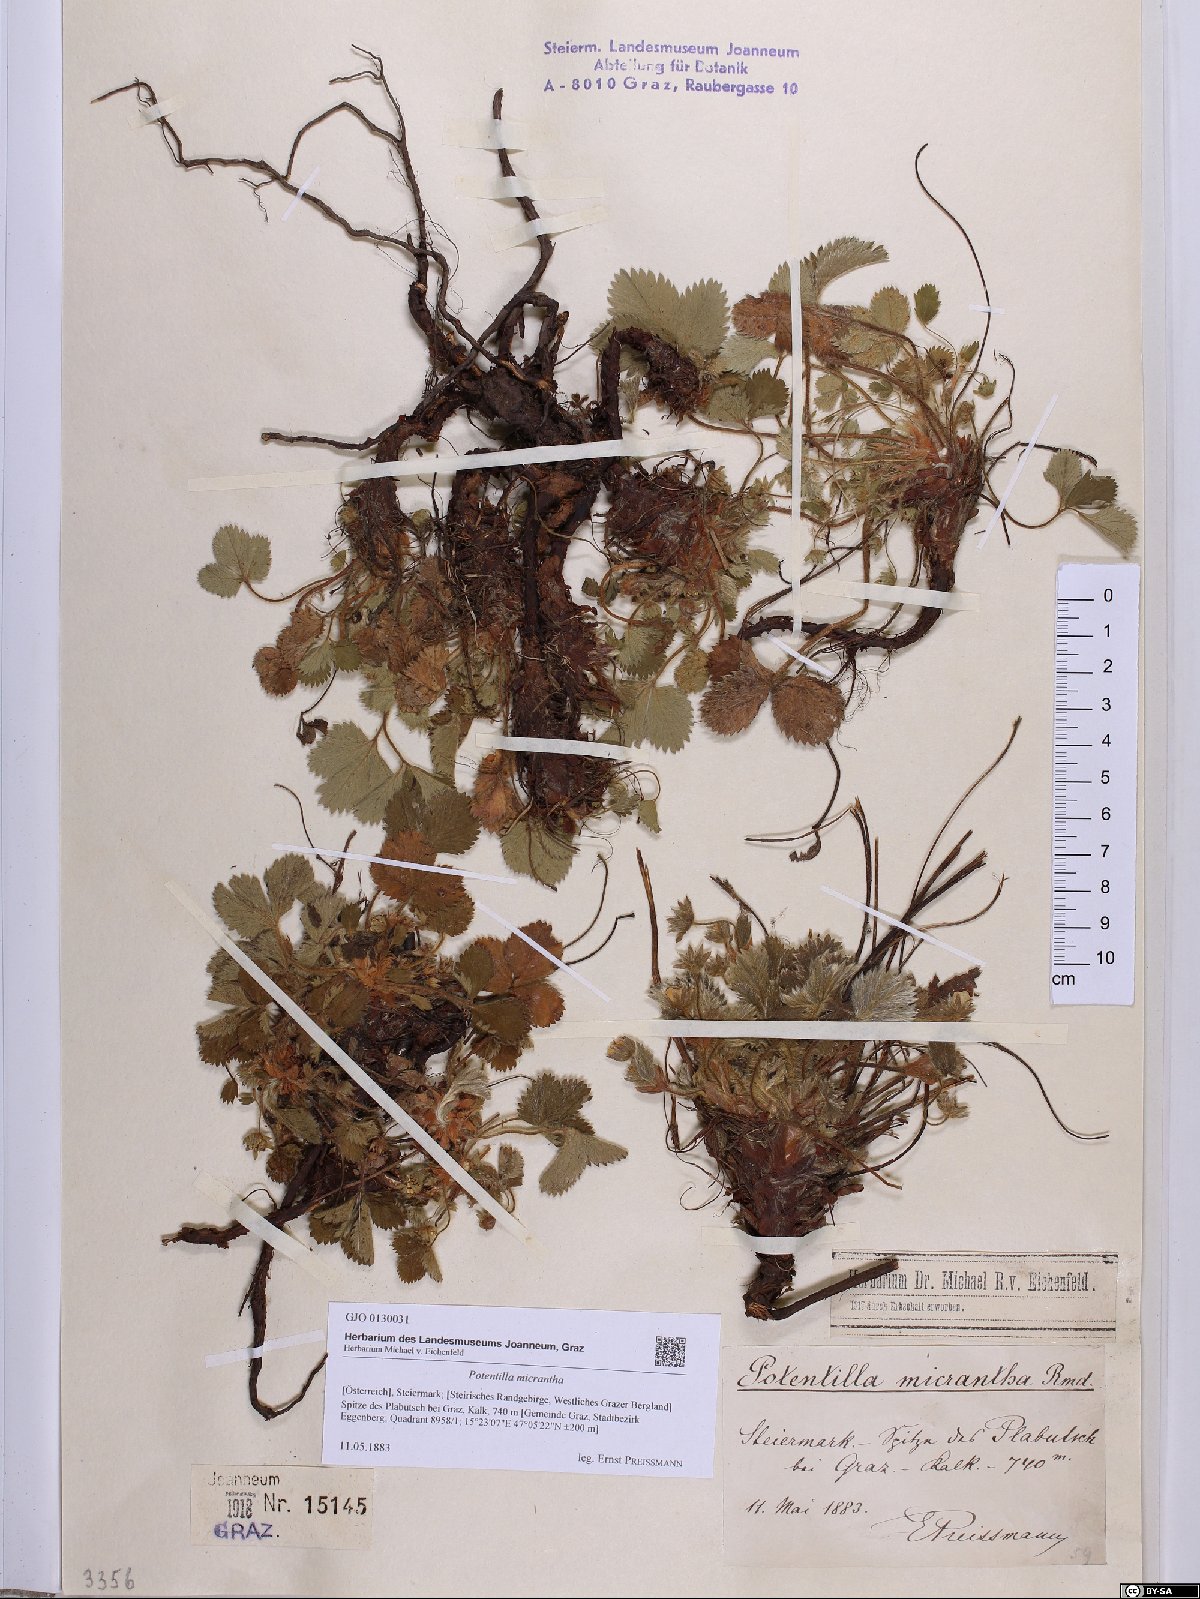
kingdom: Plantae
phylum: Tracheophyta
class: Magnoliopsida
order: Rosales
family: Rosaceae
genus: Potentilla
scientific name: Potentilla micrantha
